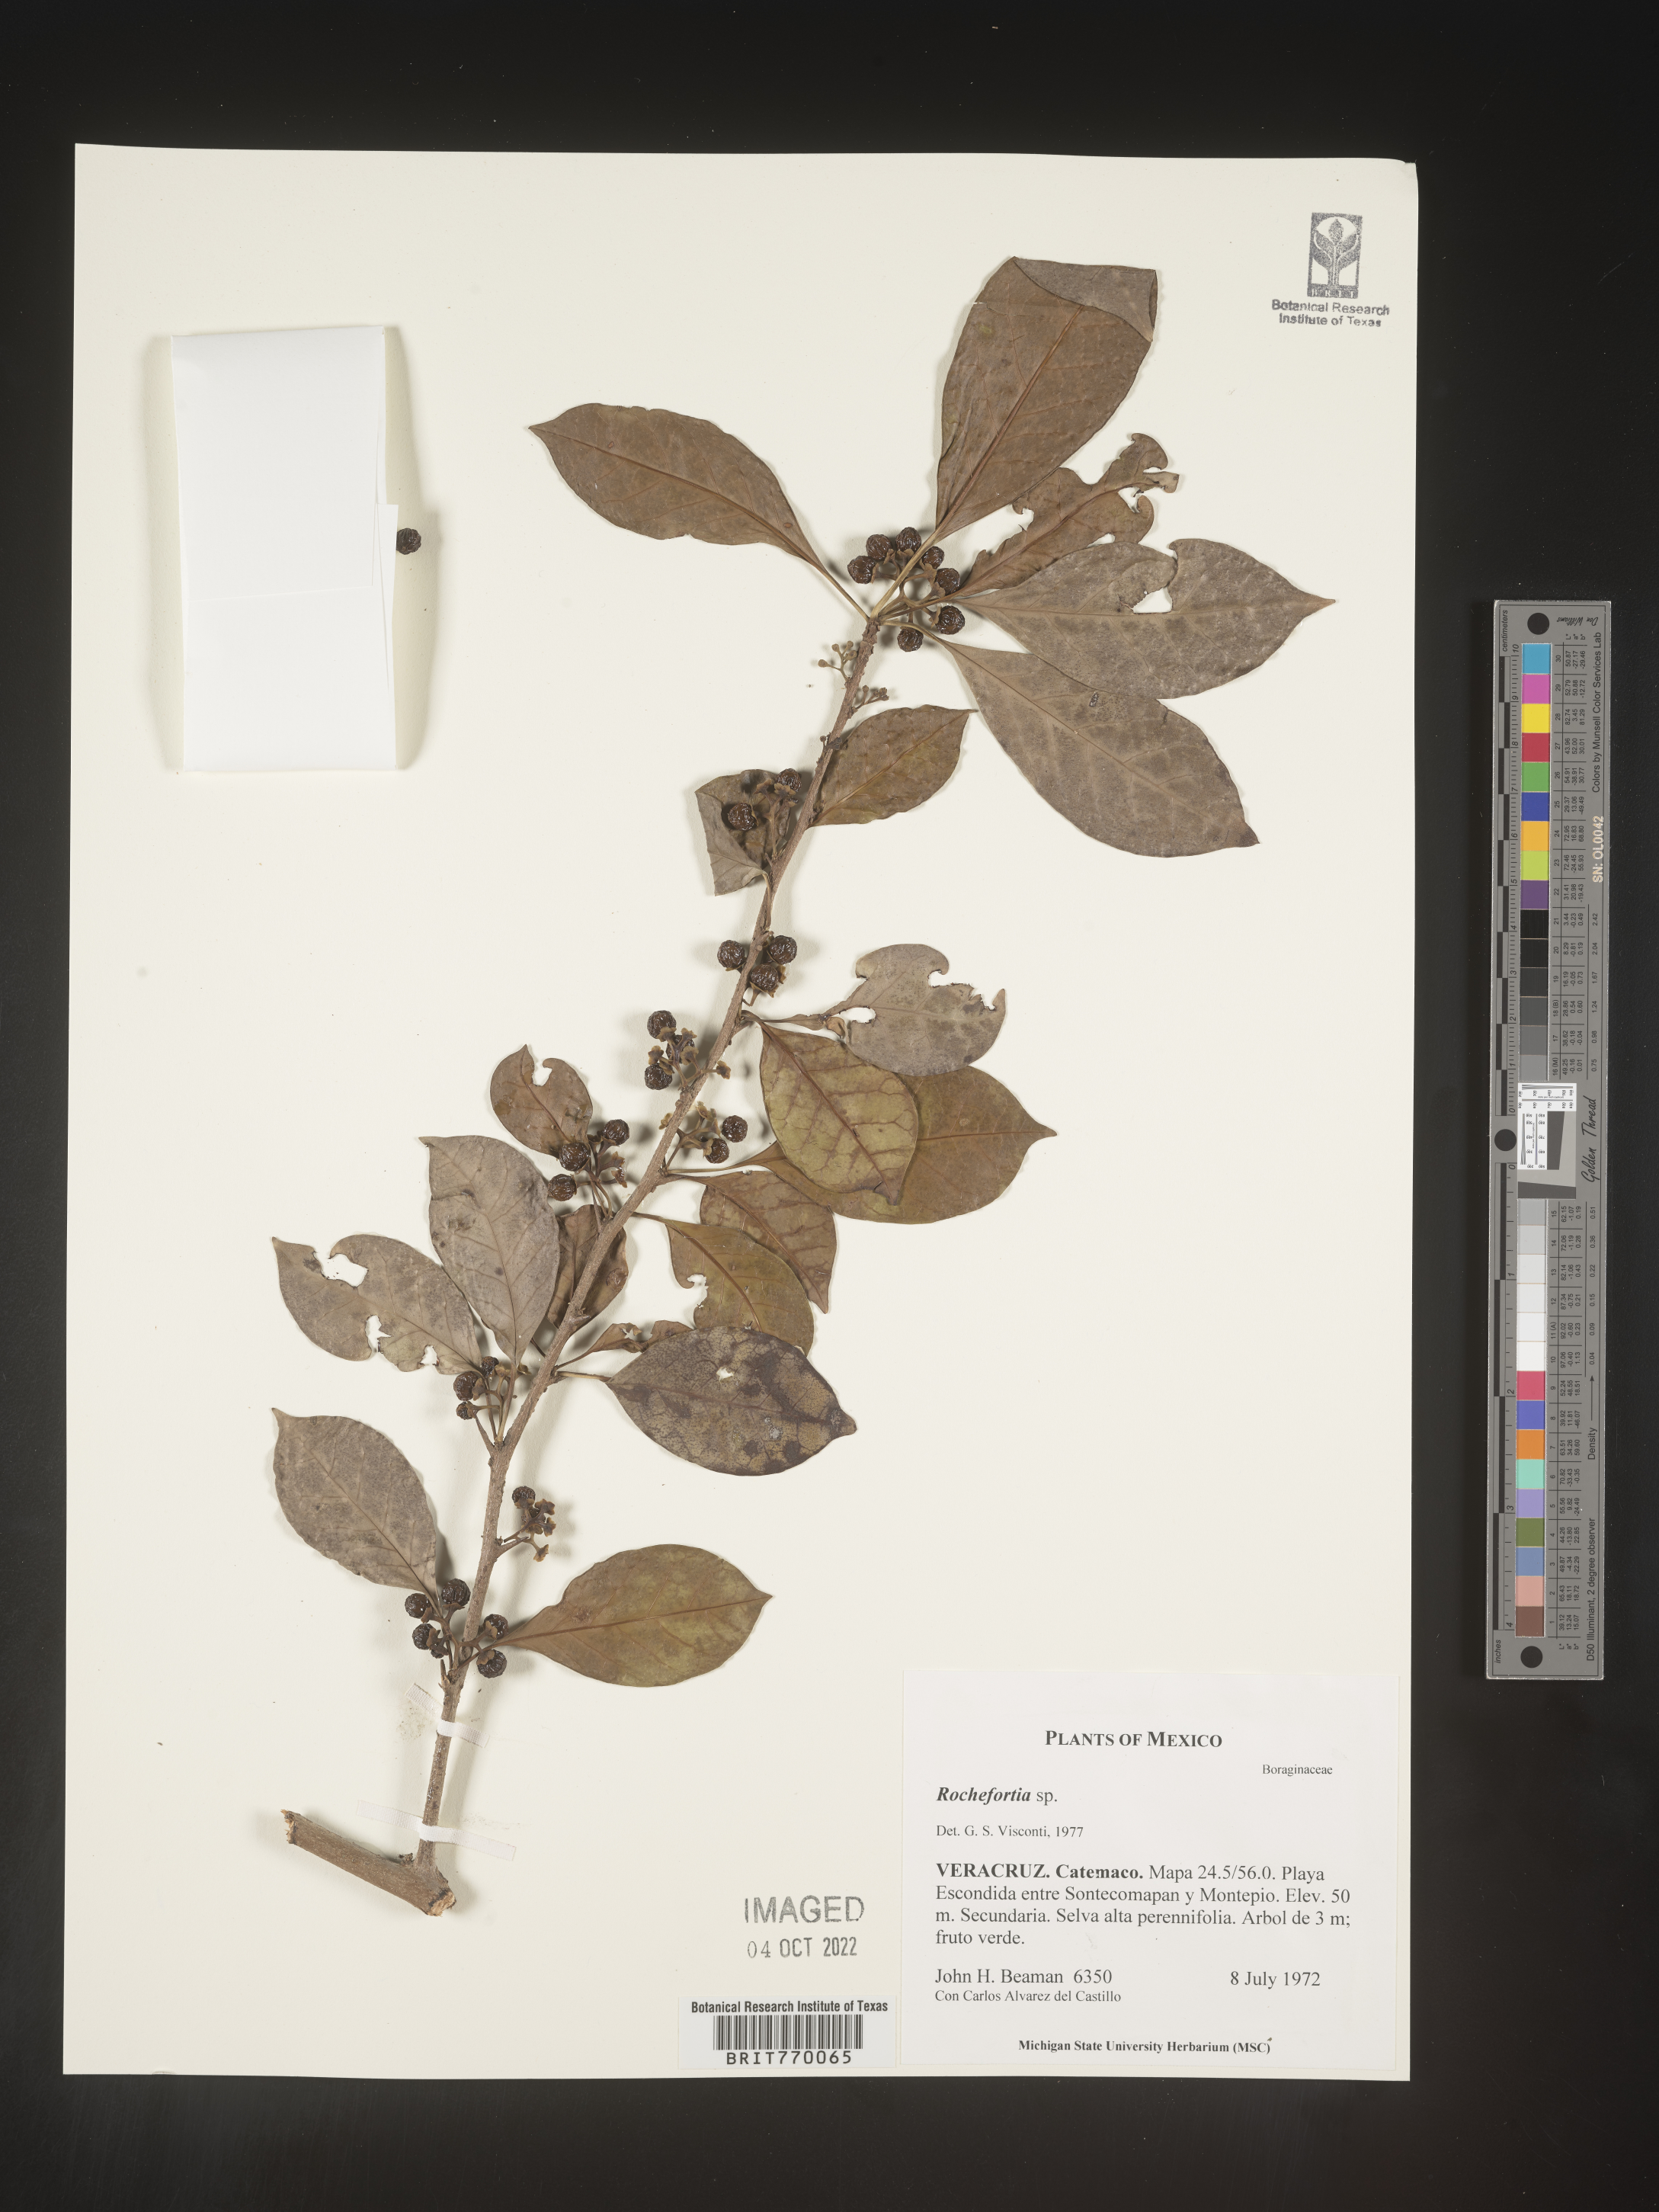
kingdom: Plantae
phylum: Tracheophyta
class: Magnoliopsida
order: Boraginales
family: Ehretiaceae
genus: Rochefortia
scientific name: Rochefortia
